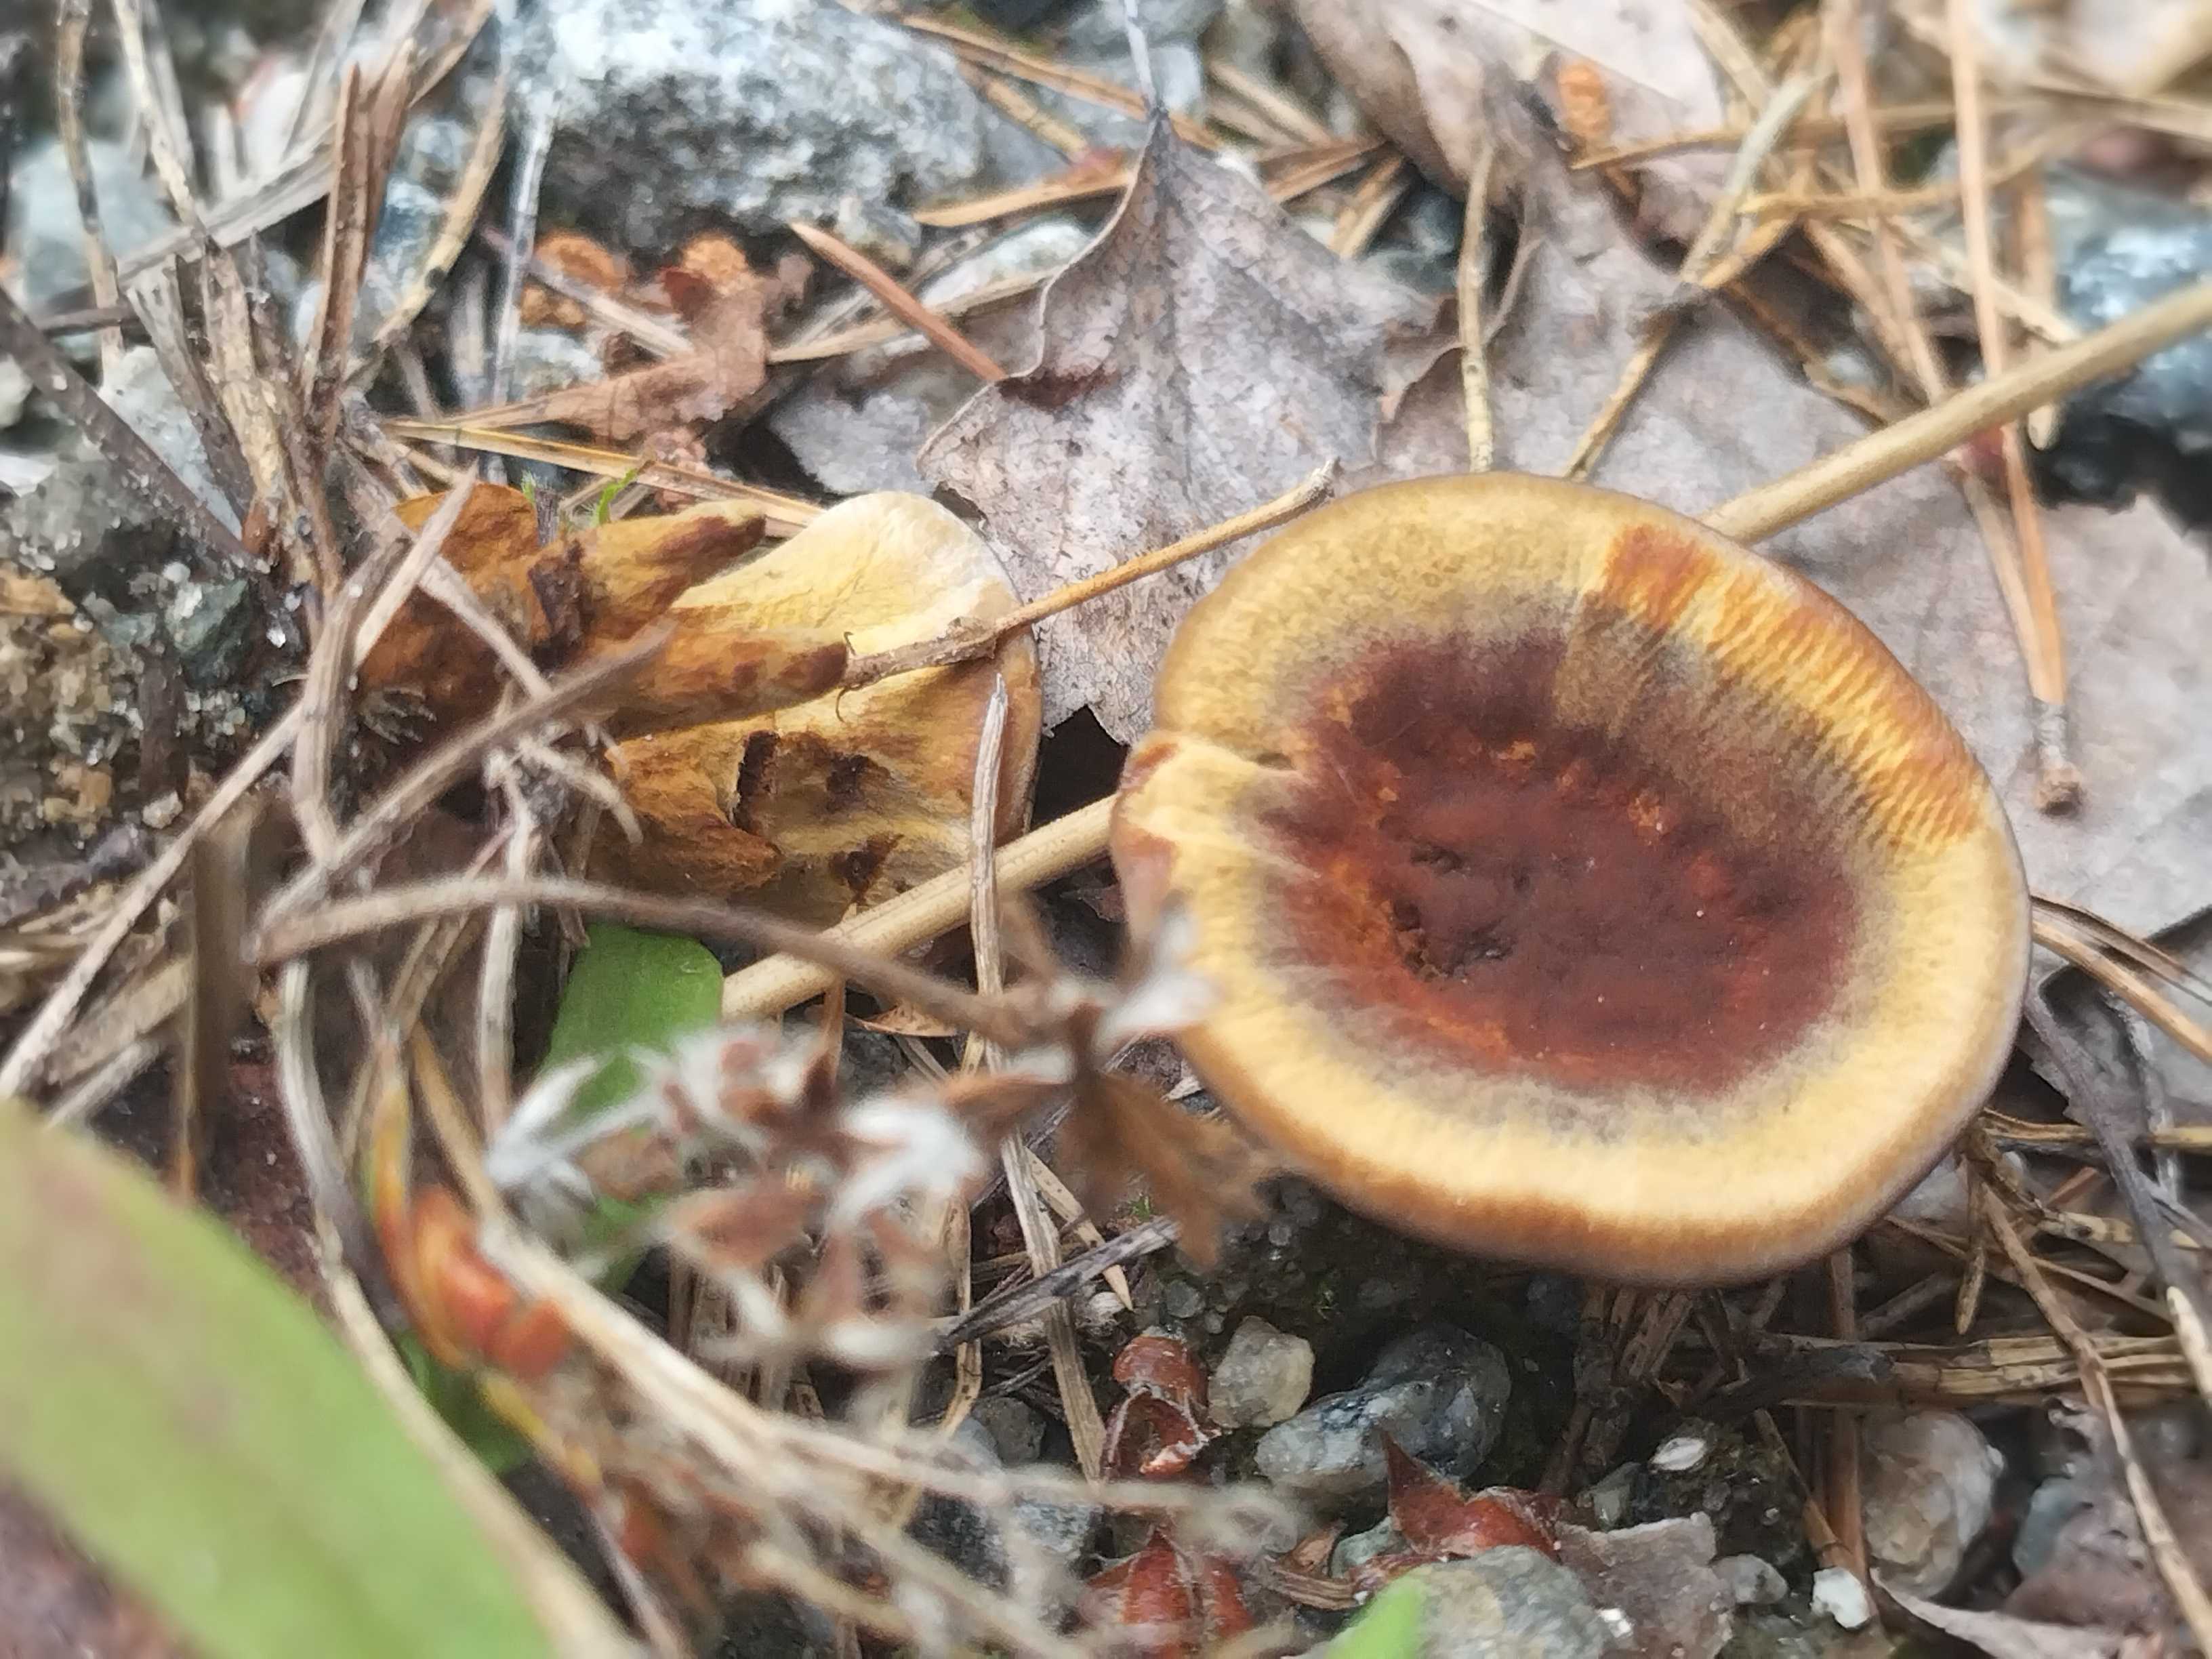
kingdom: Fungi
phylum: Basidiomycota
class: Agaricomycetes
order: Hymenochaetales
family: Hymenochaetaceae
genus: Coltricia
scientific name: Coltricia perennis
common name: almindelig sandporesvamp
